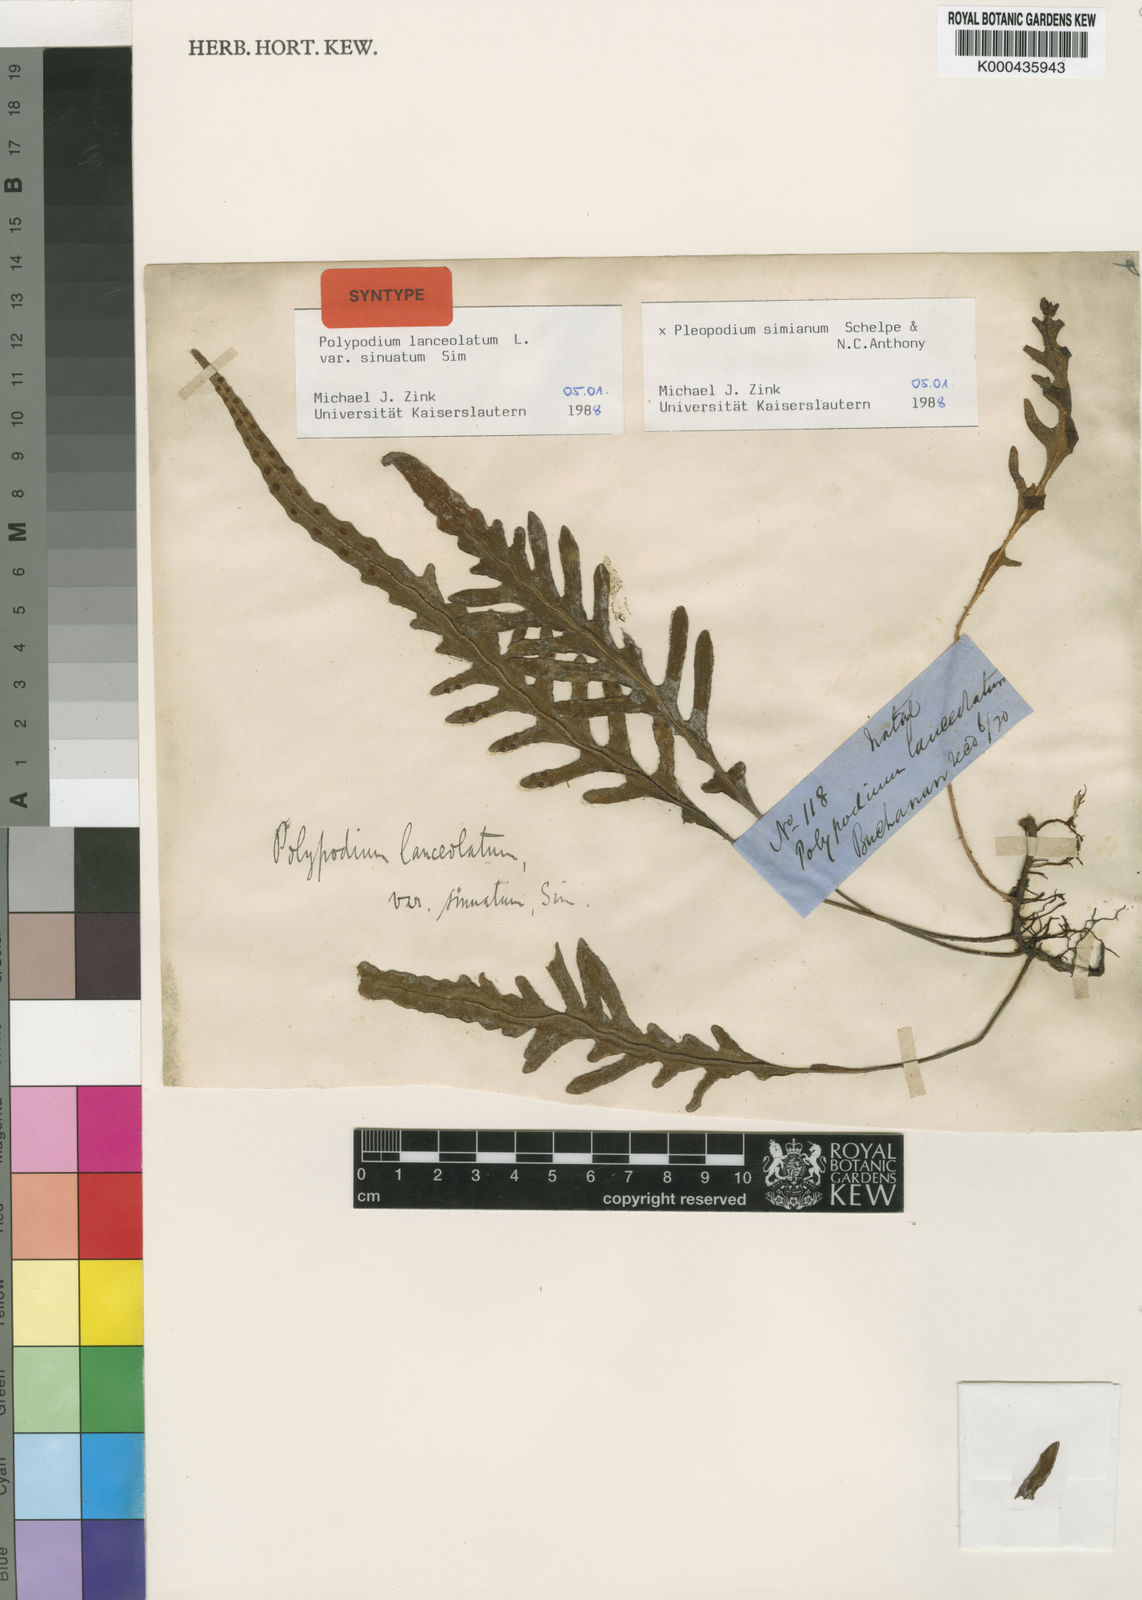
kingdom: Plantae
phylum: Tracheophyta
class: Polypodiopsida
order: Polypodiales
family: Polypodiaceae
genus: Pleopeltis
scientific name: Pleopeltis simiana
